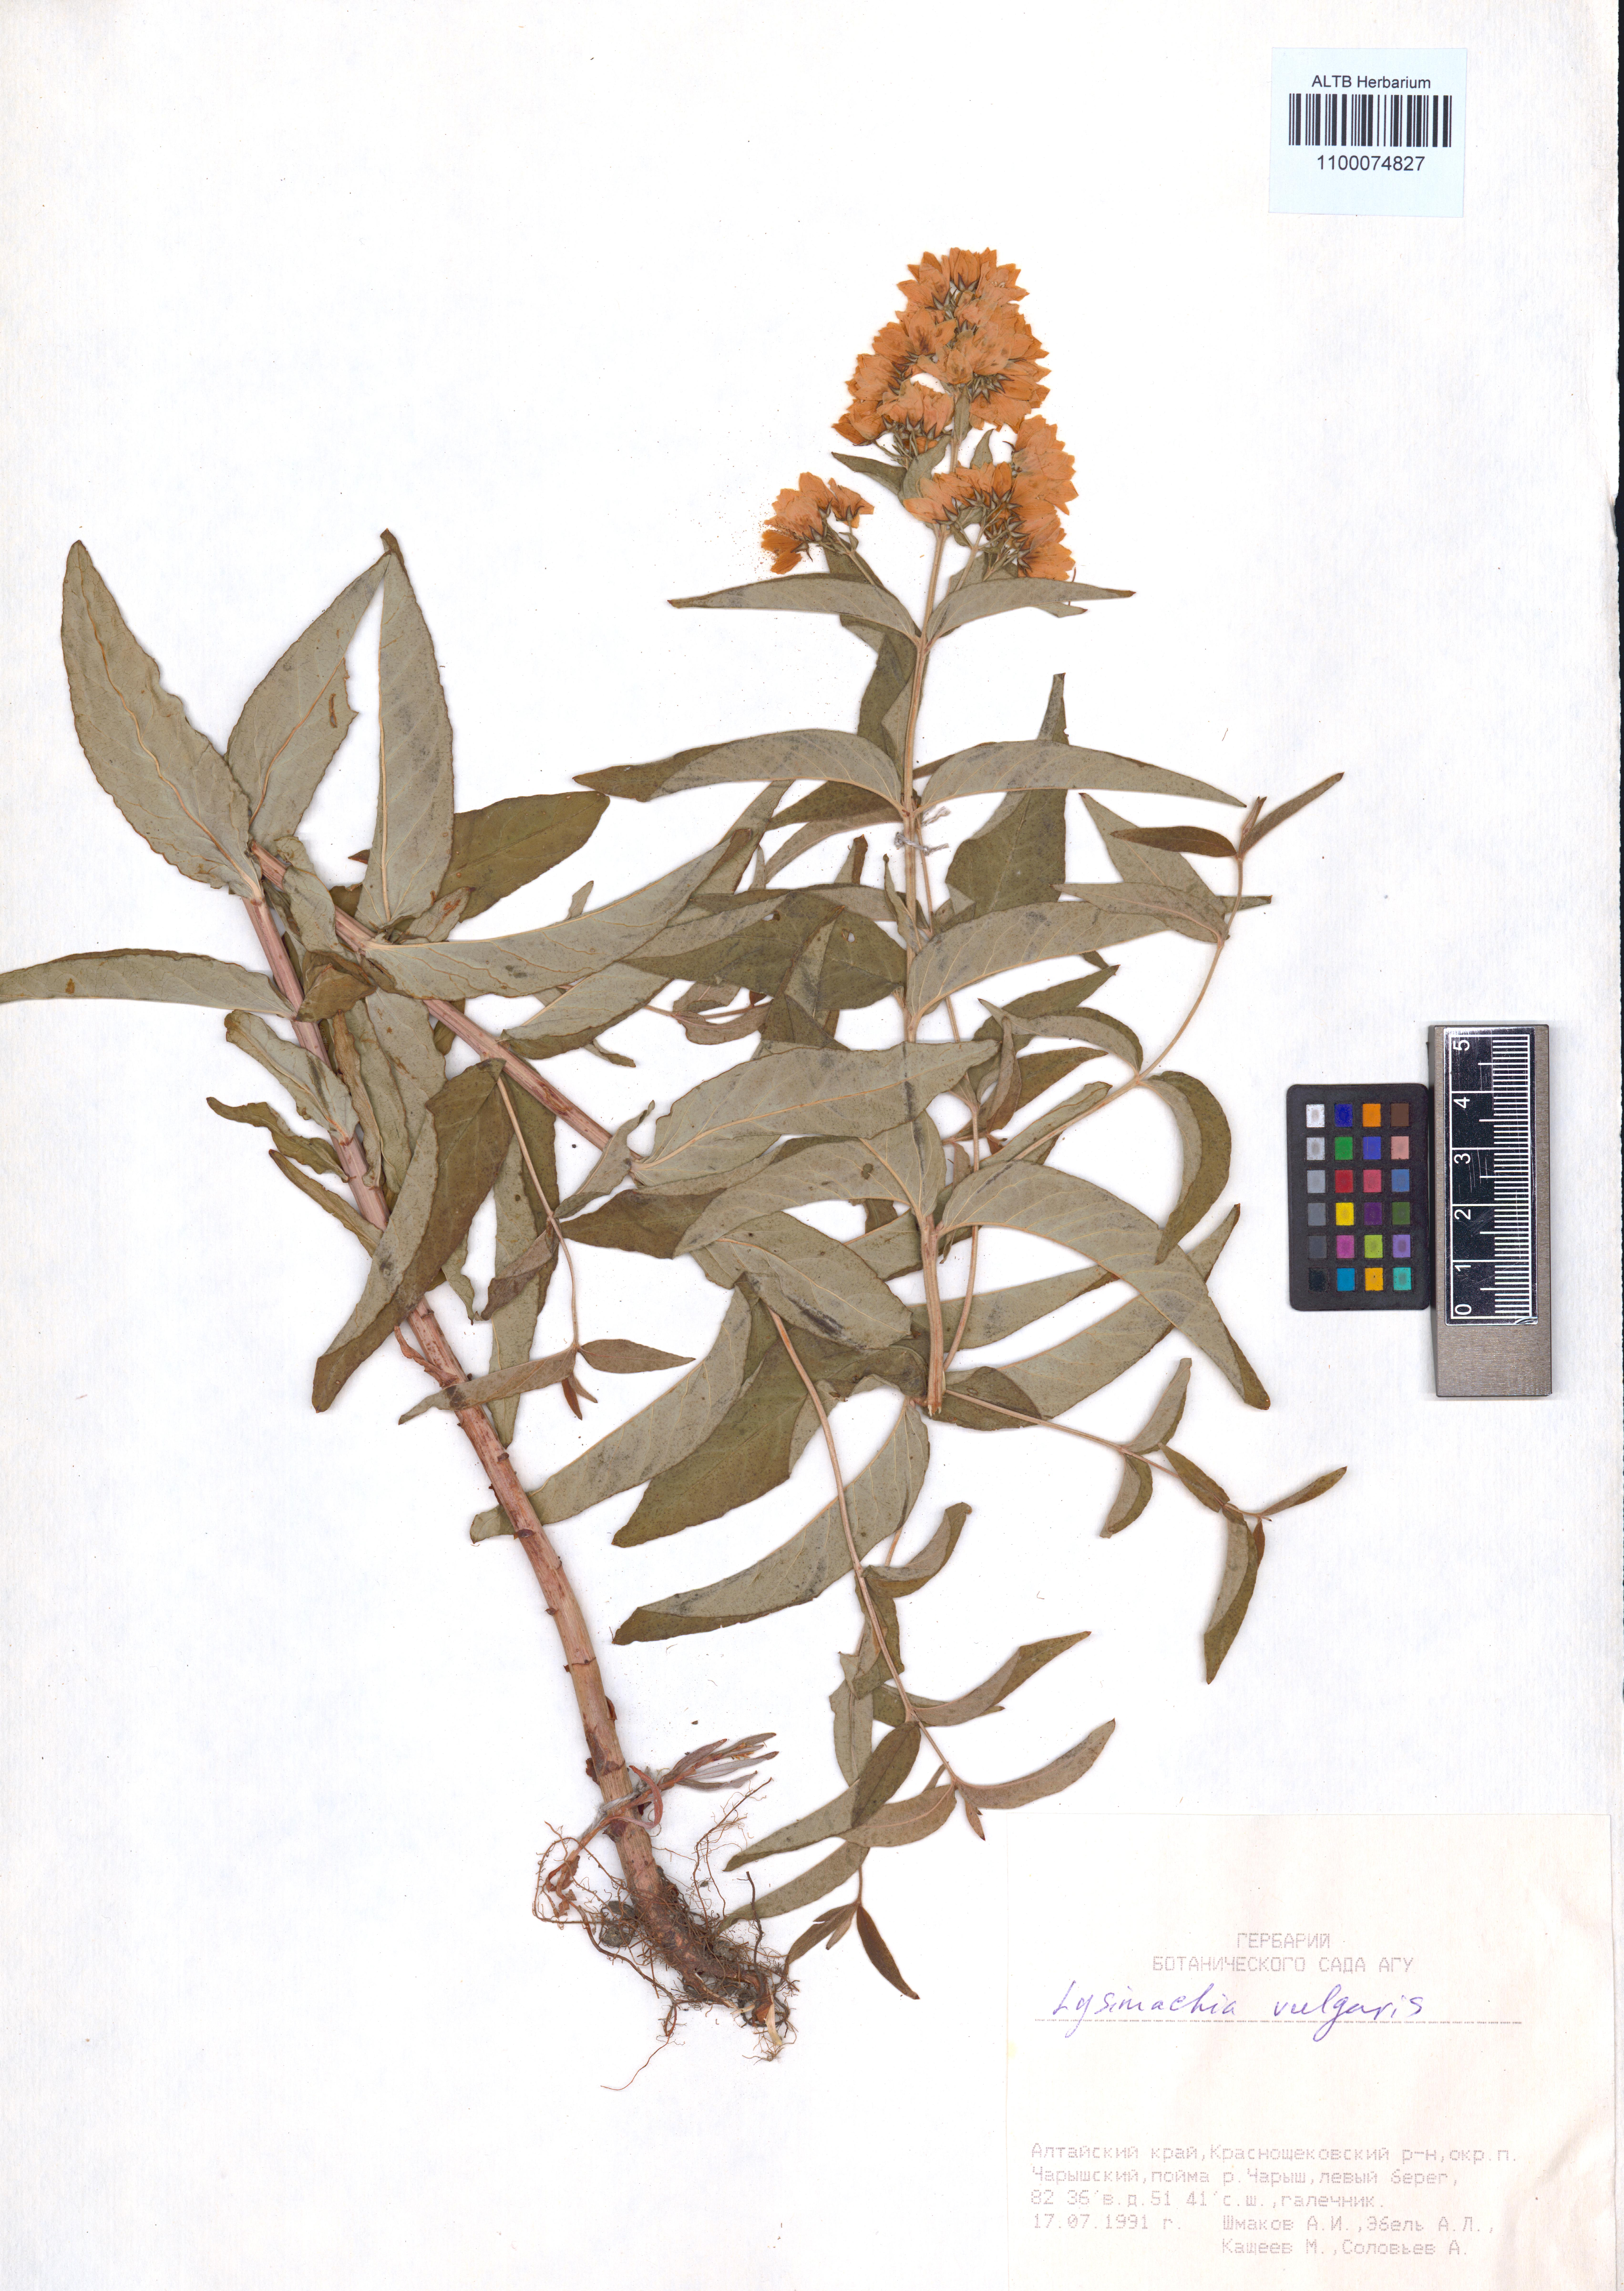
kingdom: Plantae
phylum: Tracheophyta
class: Magnoliopsida
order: Ericales
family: Primulaceae
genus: Lysimachia
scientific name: Lysimachia vulgaris
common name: Yellow loosestrife
